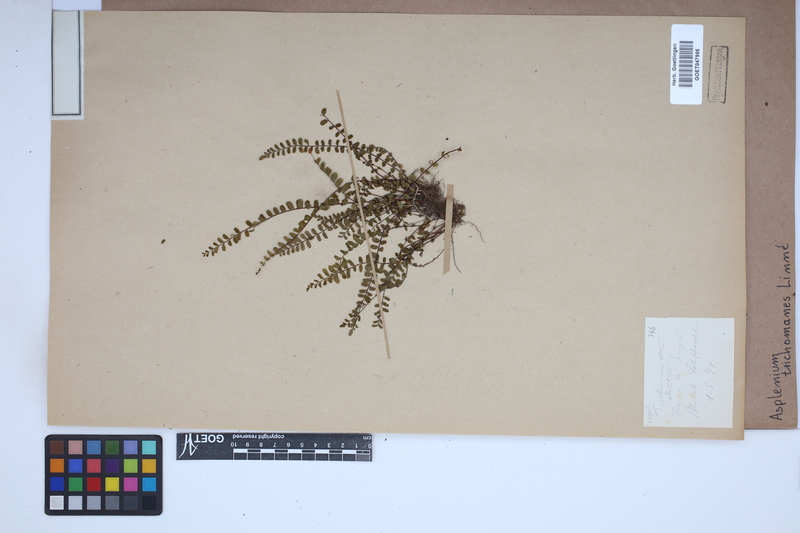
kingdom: Plantae
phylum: Tracheophyta
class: Polypodiopsida
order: Polypodiales
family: Aspleniaceae
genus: Asplenium
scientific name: Asplenium trichomanes
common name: Maidenhair spleenwort
